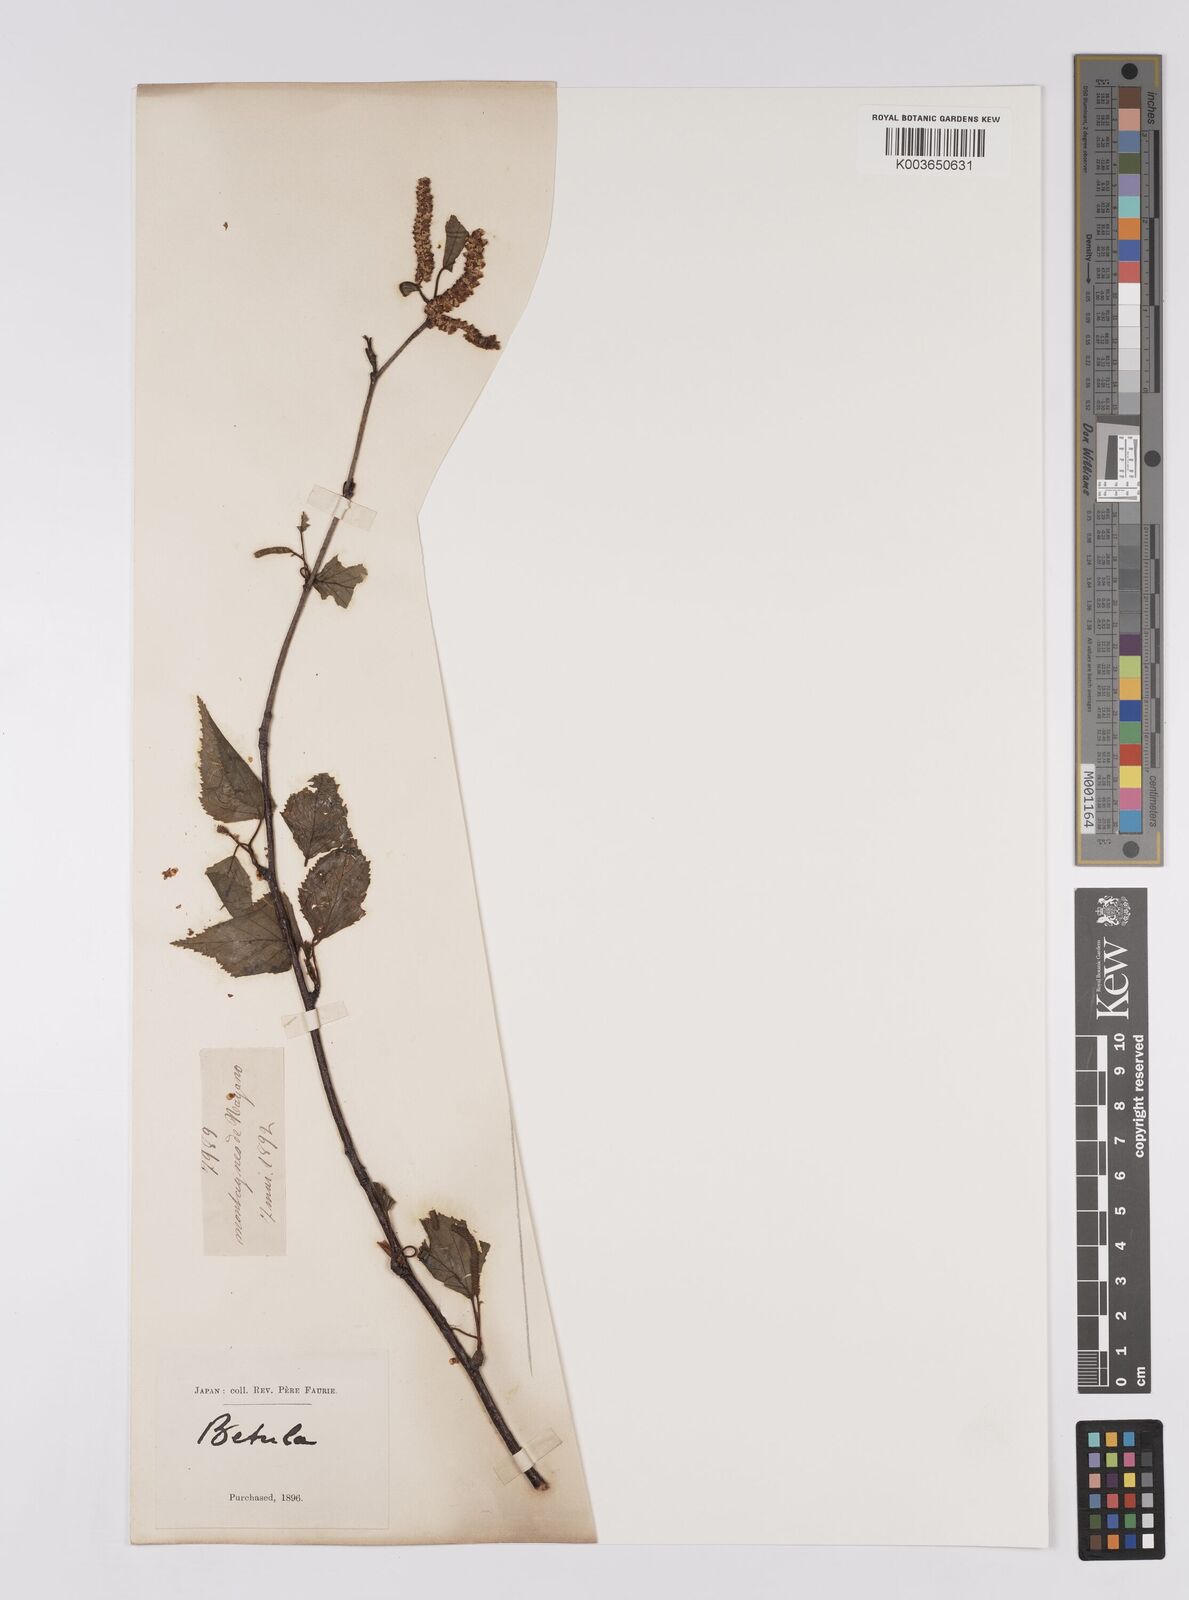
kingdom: Plantae
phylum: Tracheophyta
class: Magnoliopsida
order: Fagales
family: Betulaceae
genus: Betula
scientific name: Betula pendula
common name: Silver birch
